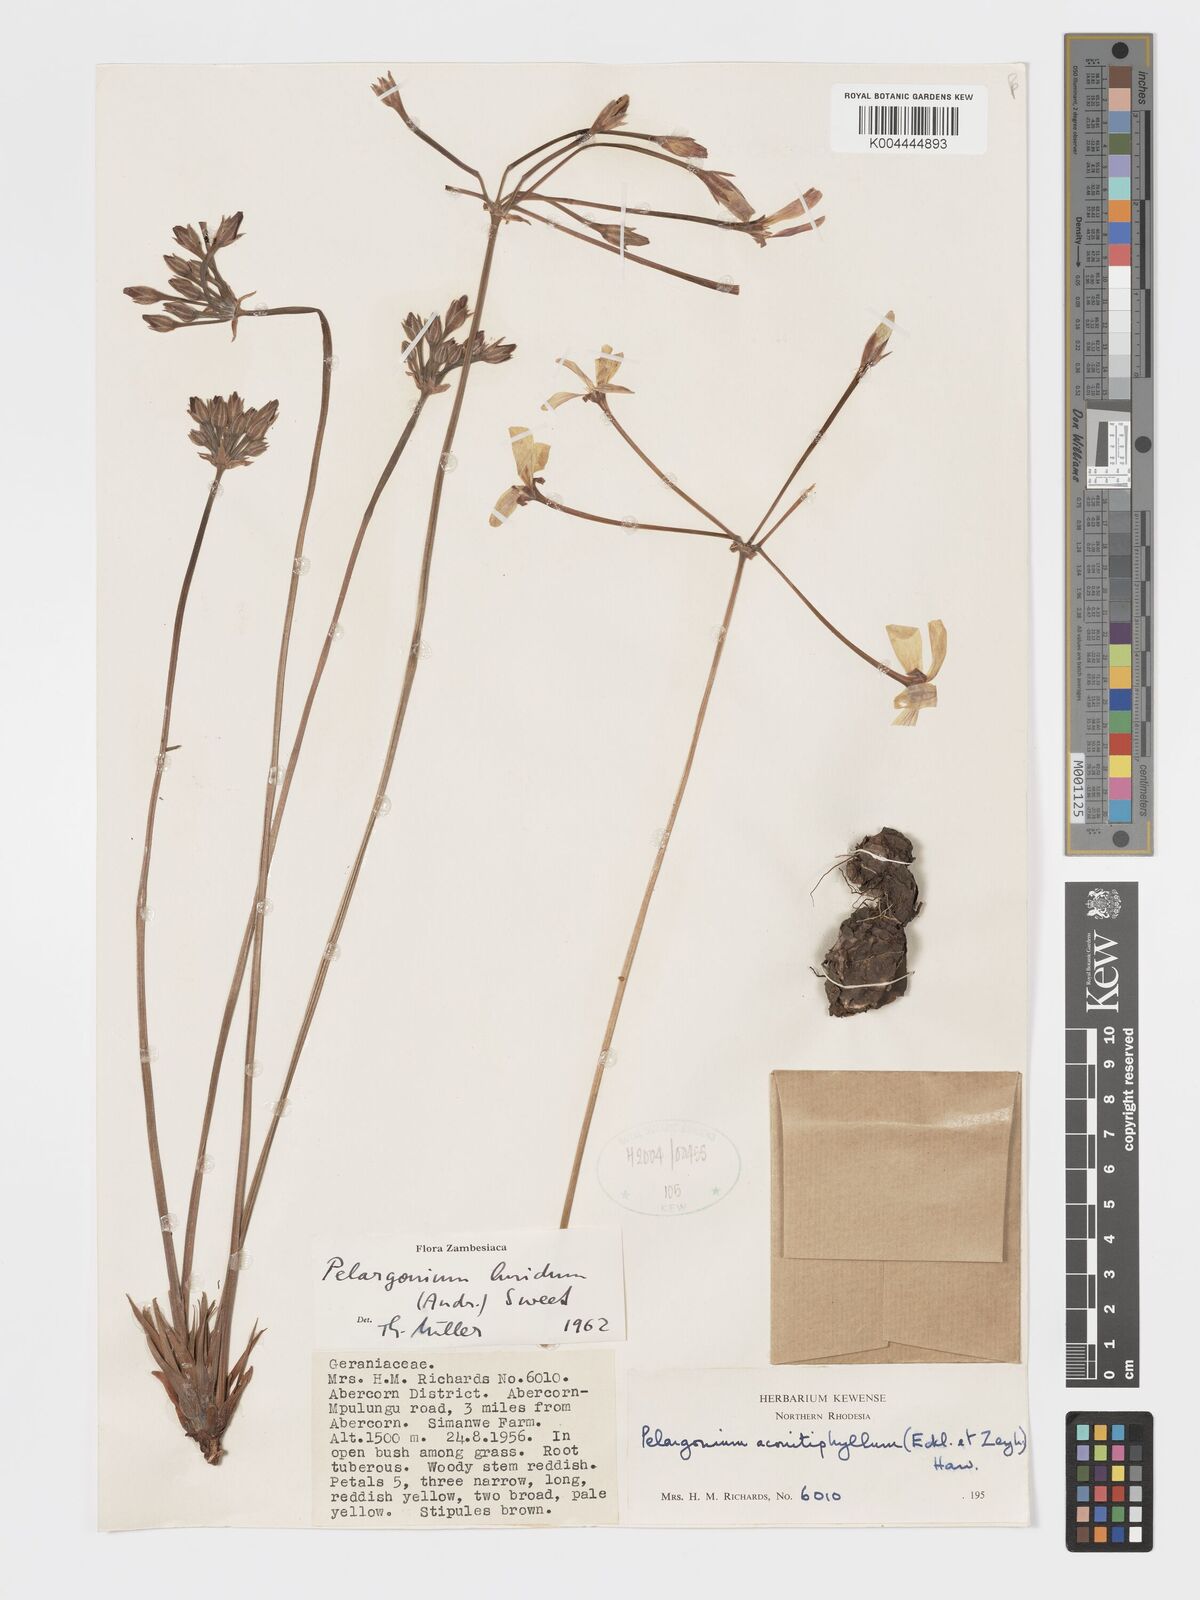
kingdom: Plantae
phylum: Tracheophyta
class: Magnoliopsida
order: Geraniales
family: Geraniaceae
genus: Pelargonium
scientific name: Pelargonium luridum
